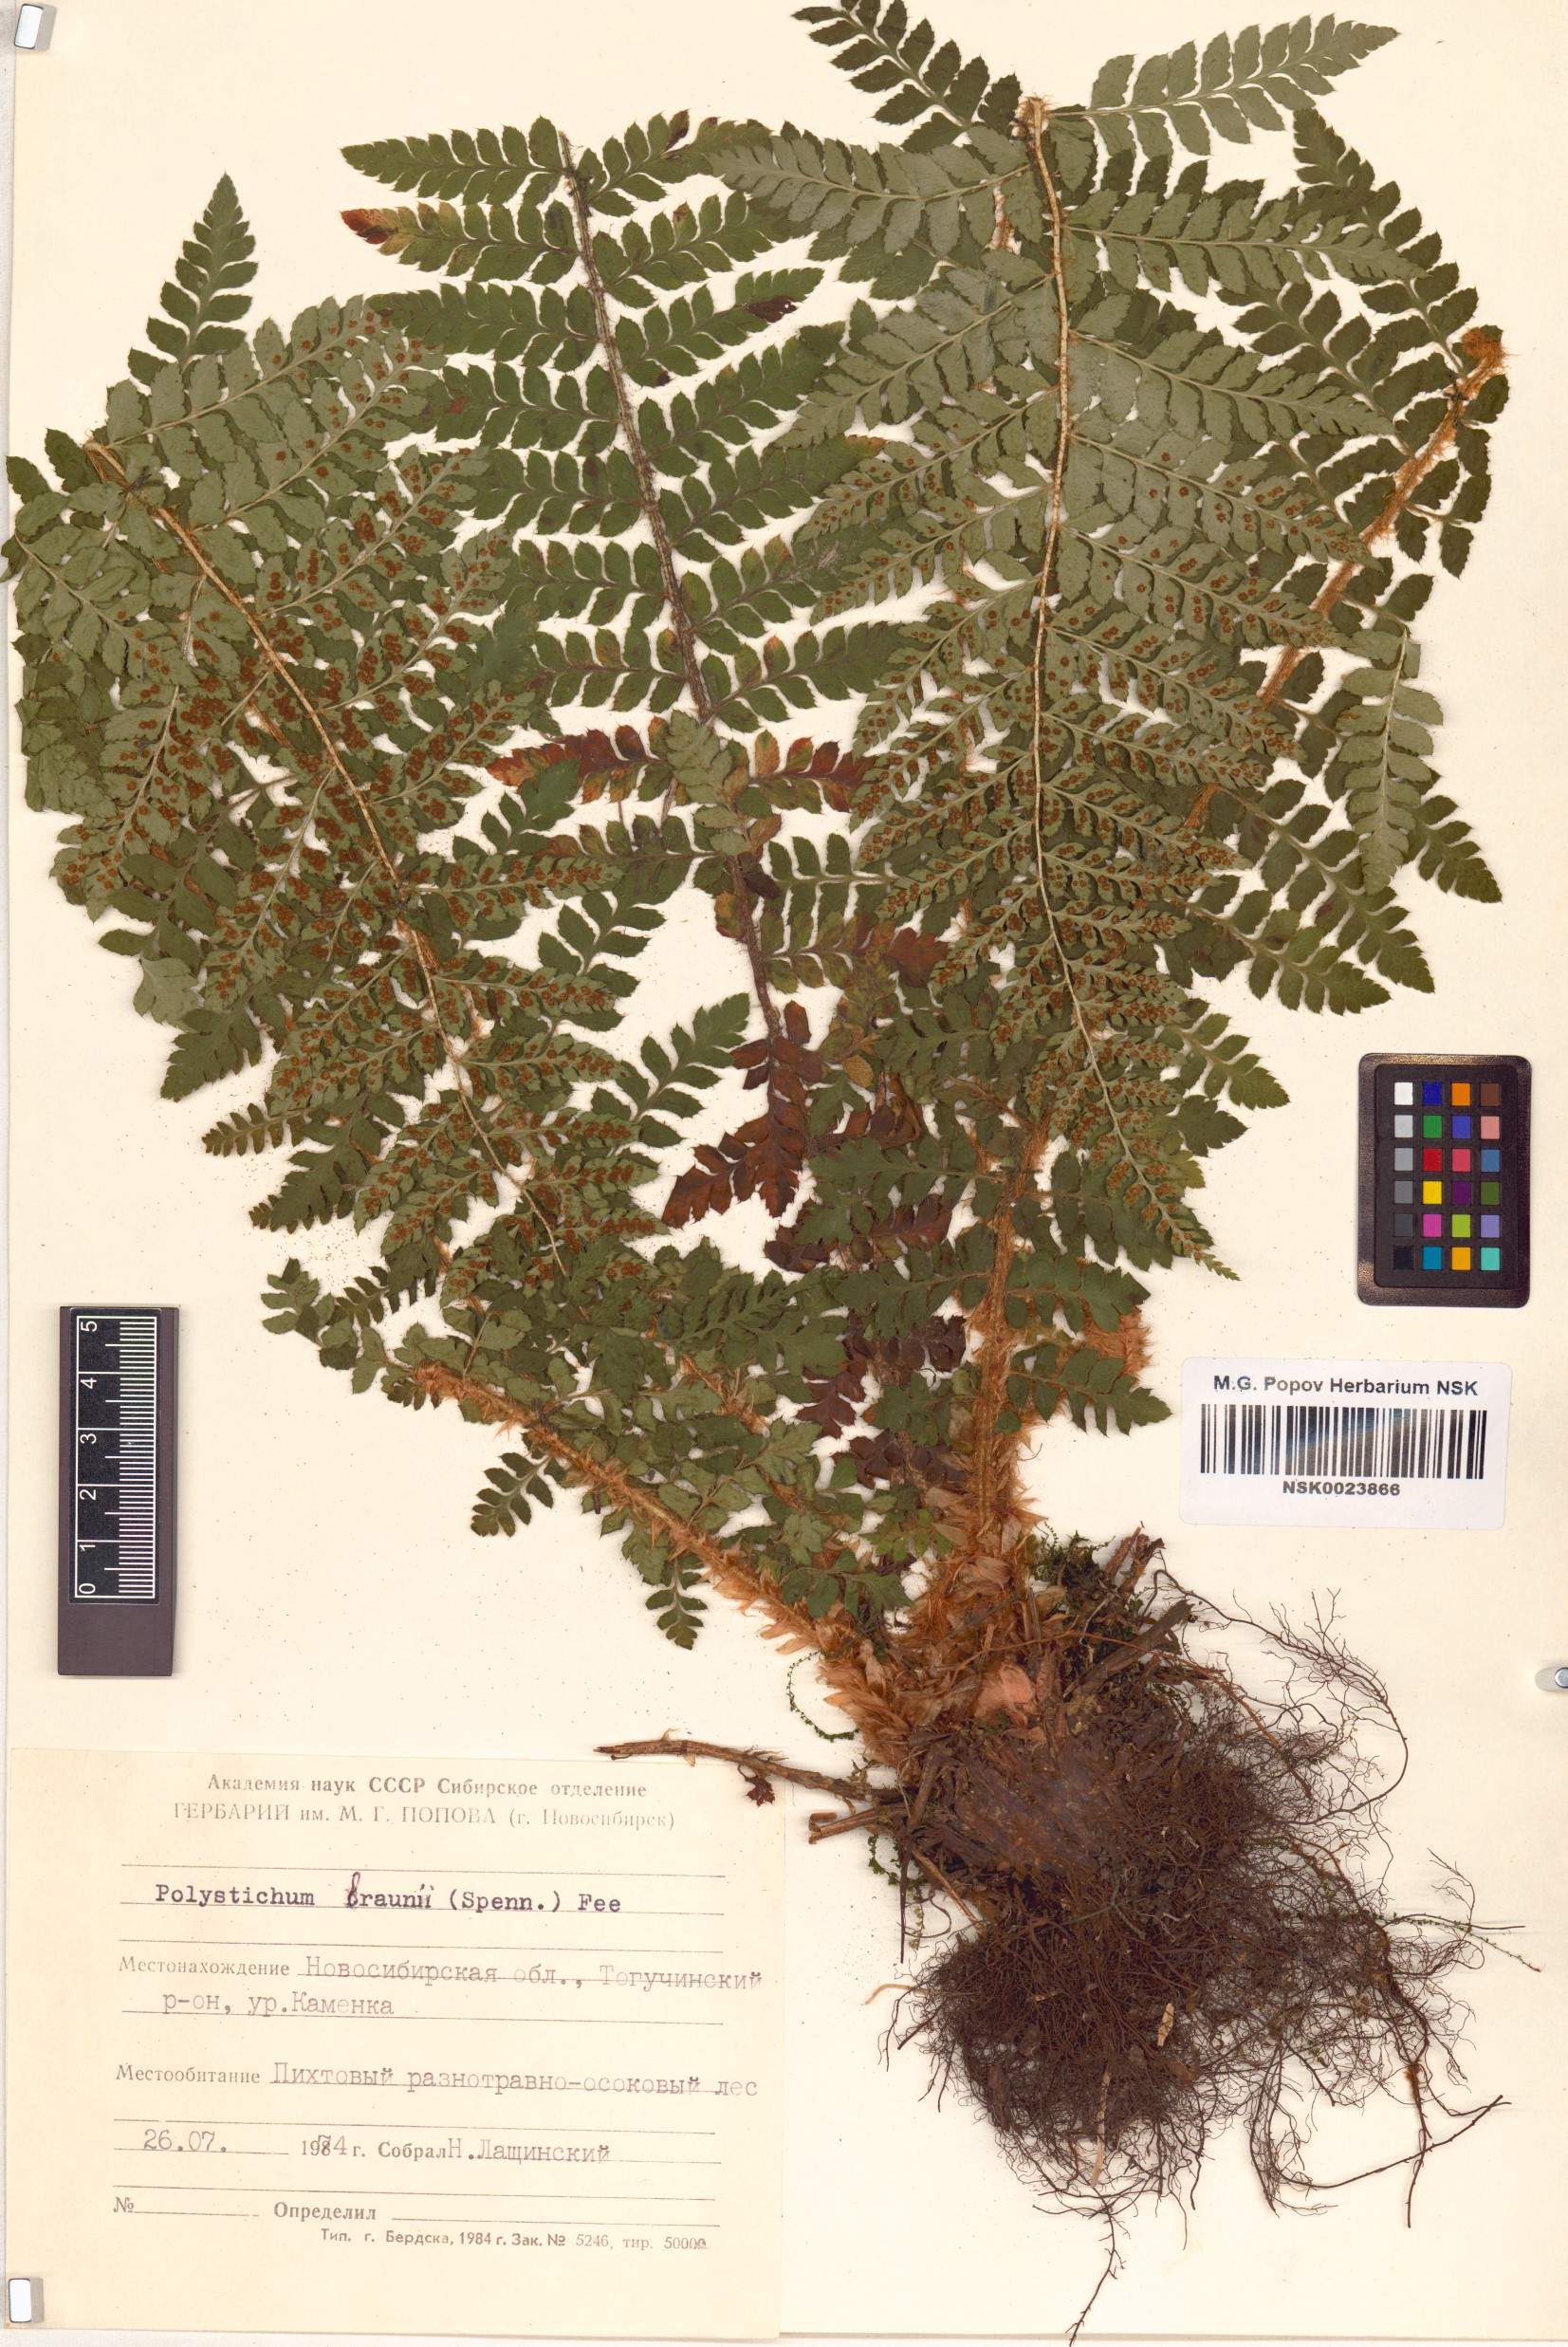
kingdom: Plantae
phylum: Tracheophyta
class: Polypodiopsida
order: Polypodiales
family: Dryopteridaceae
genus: Polystichum
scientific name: Polystichum braunii
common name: Braun's holly fern
